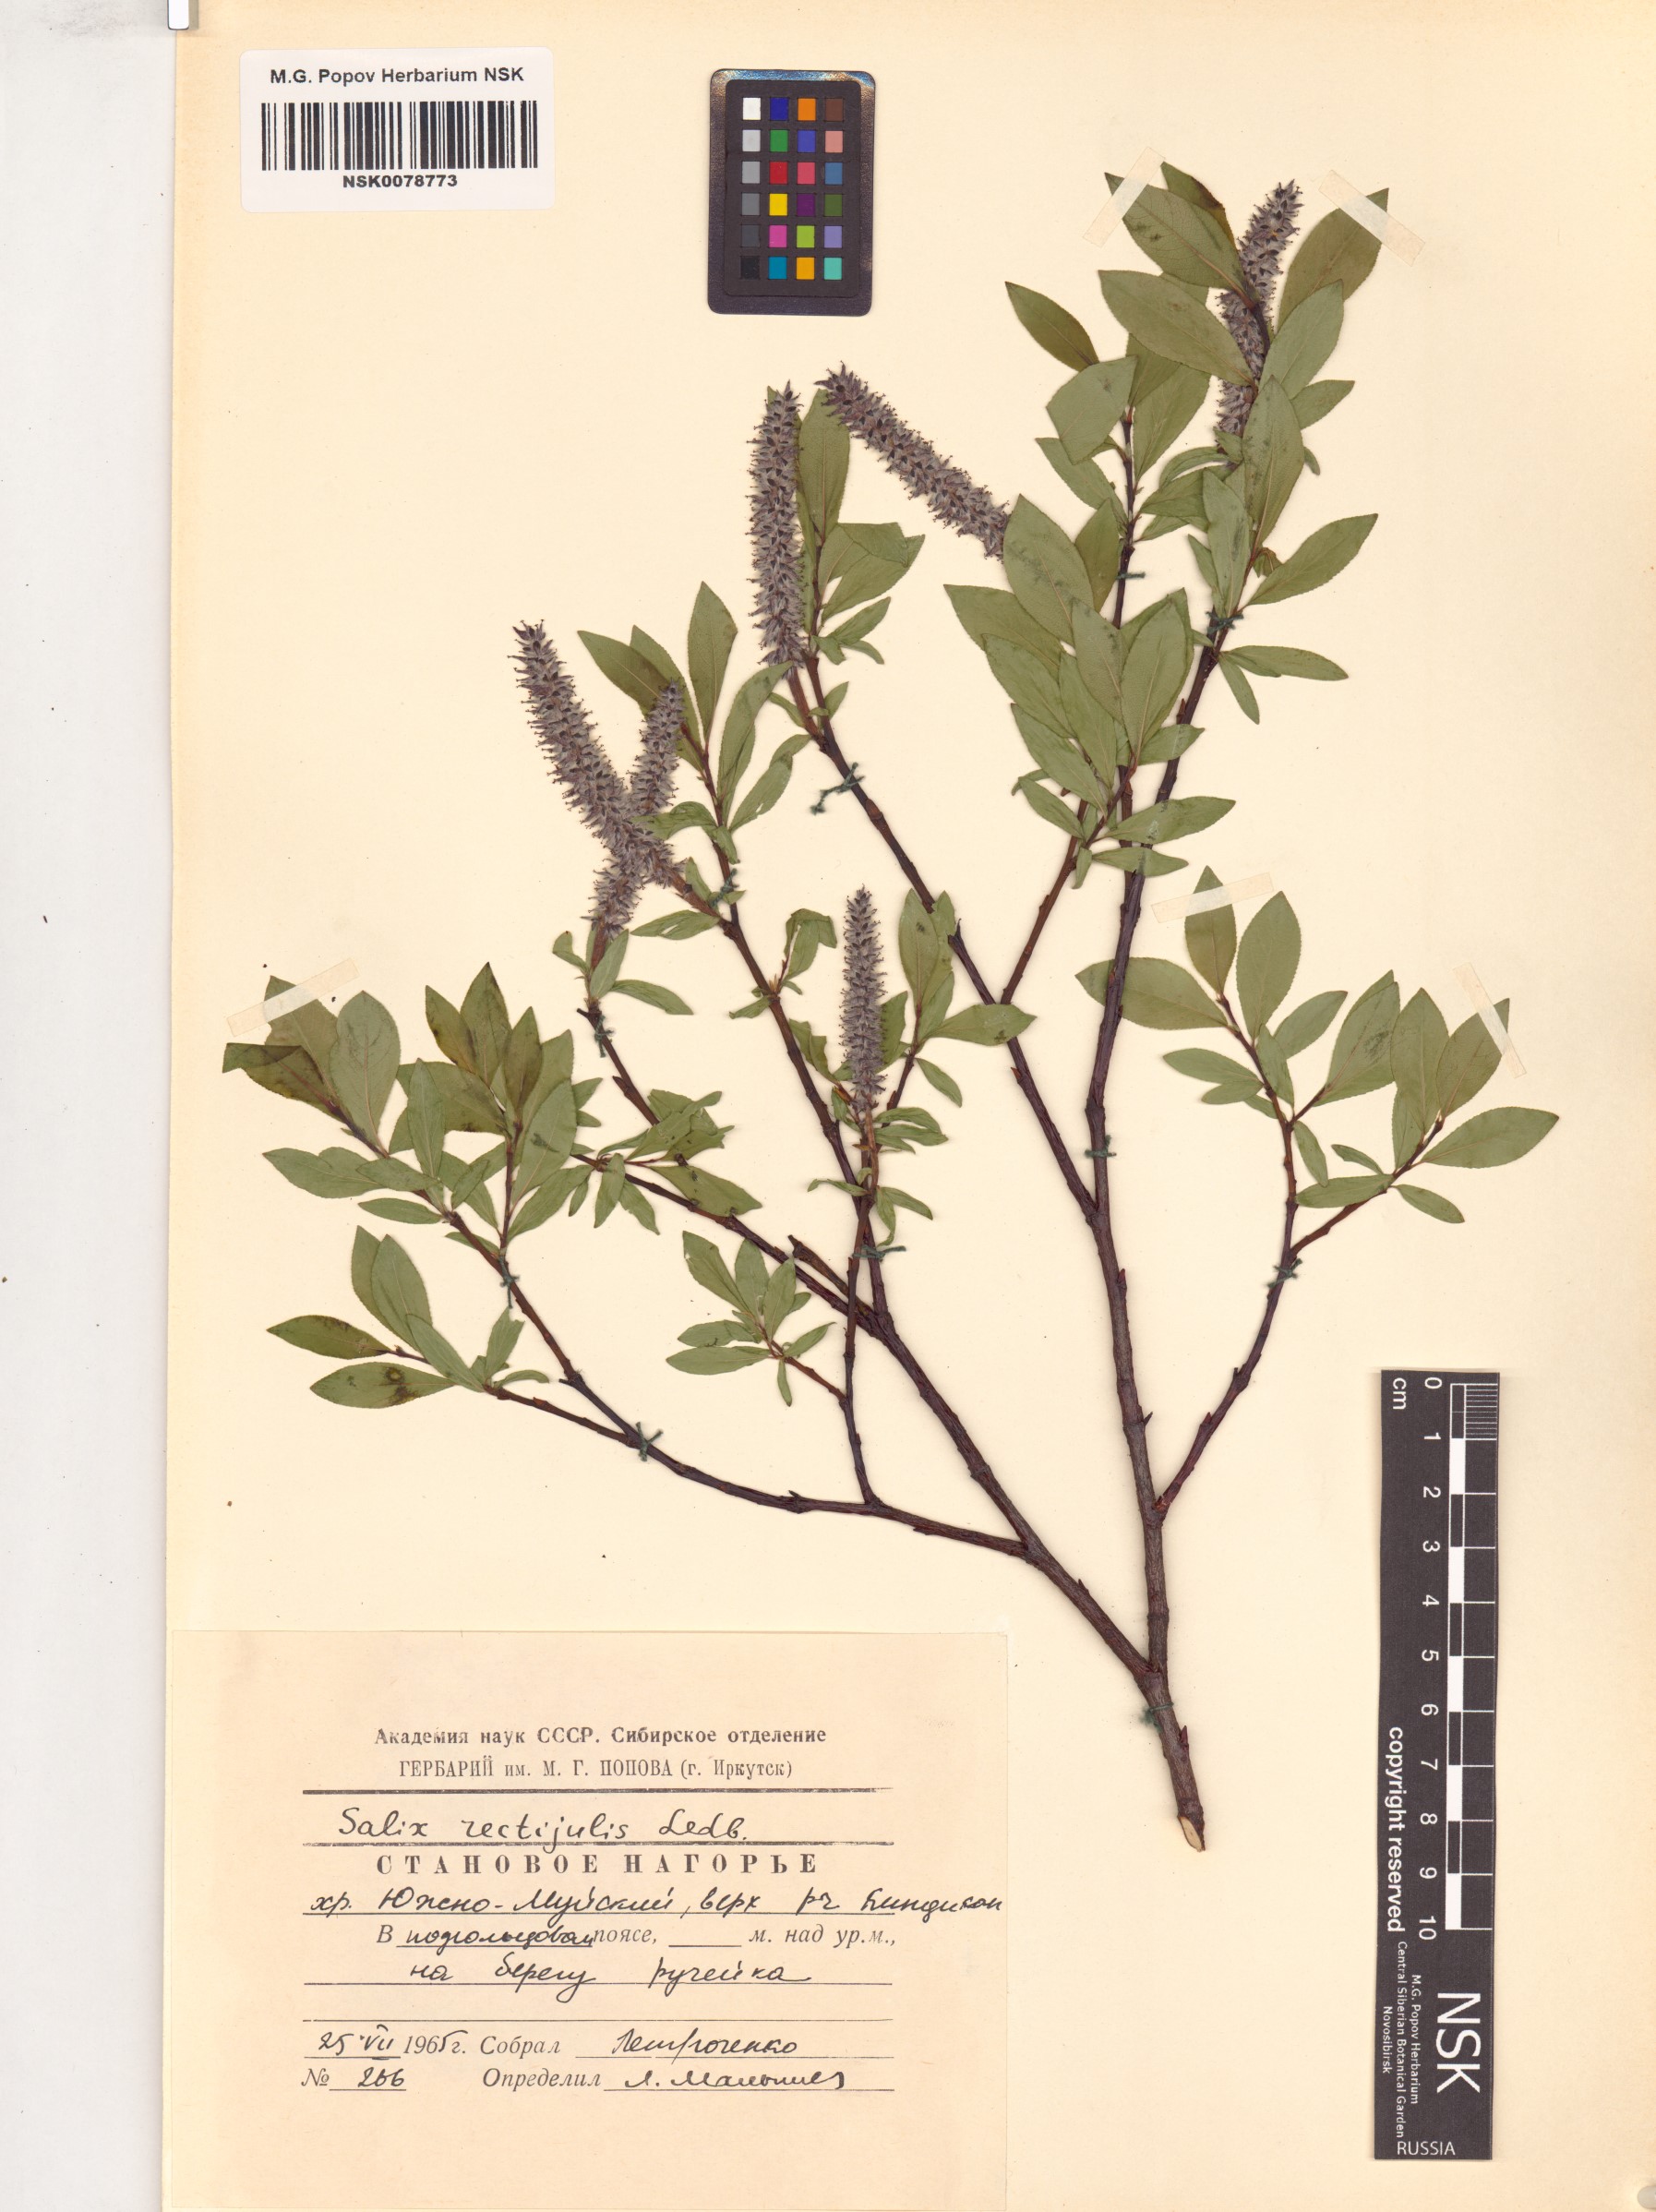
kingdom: Plantae
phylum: Tracheophyta
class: Magnoliopsida
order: Malpighiales
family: Salicaceae
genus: Salix
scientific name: Salix rectijulis
